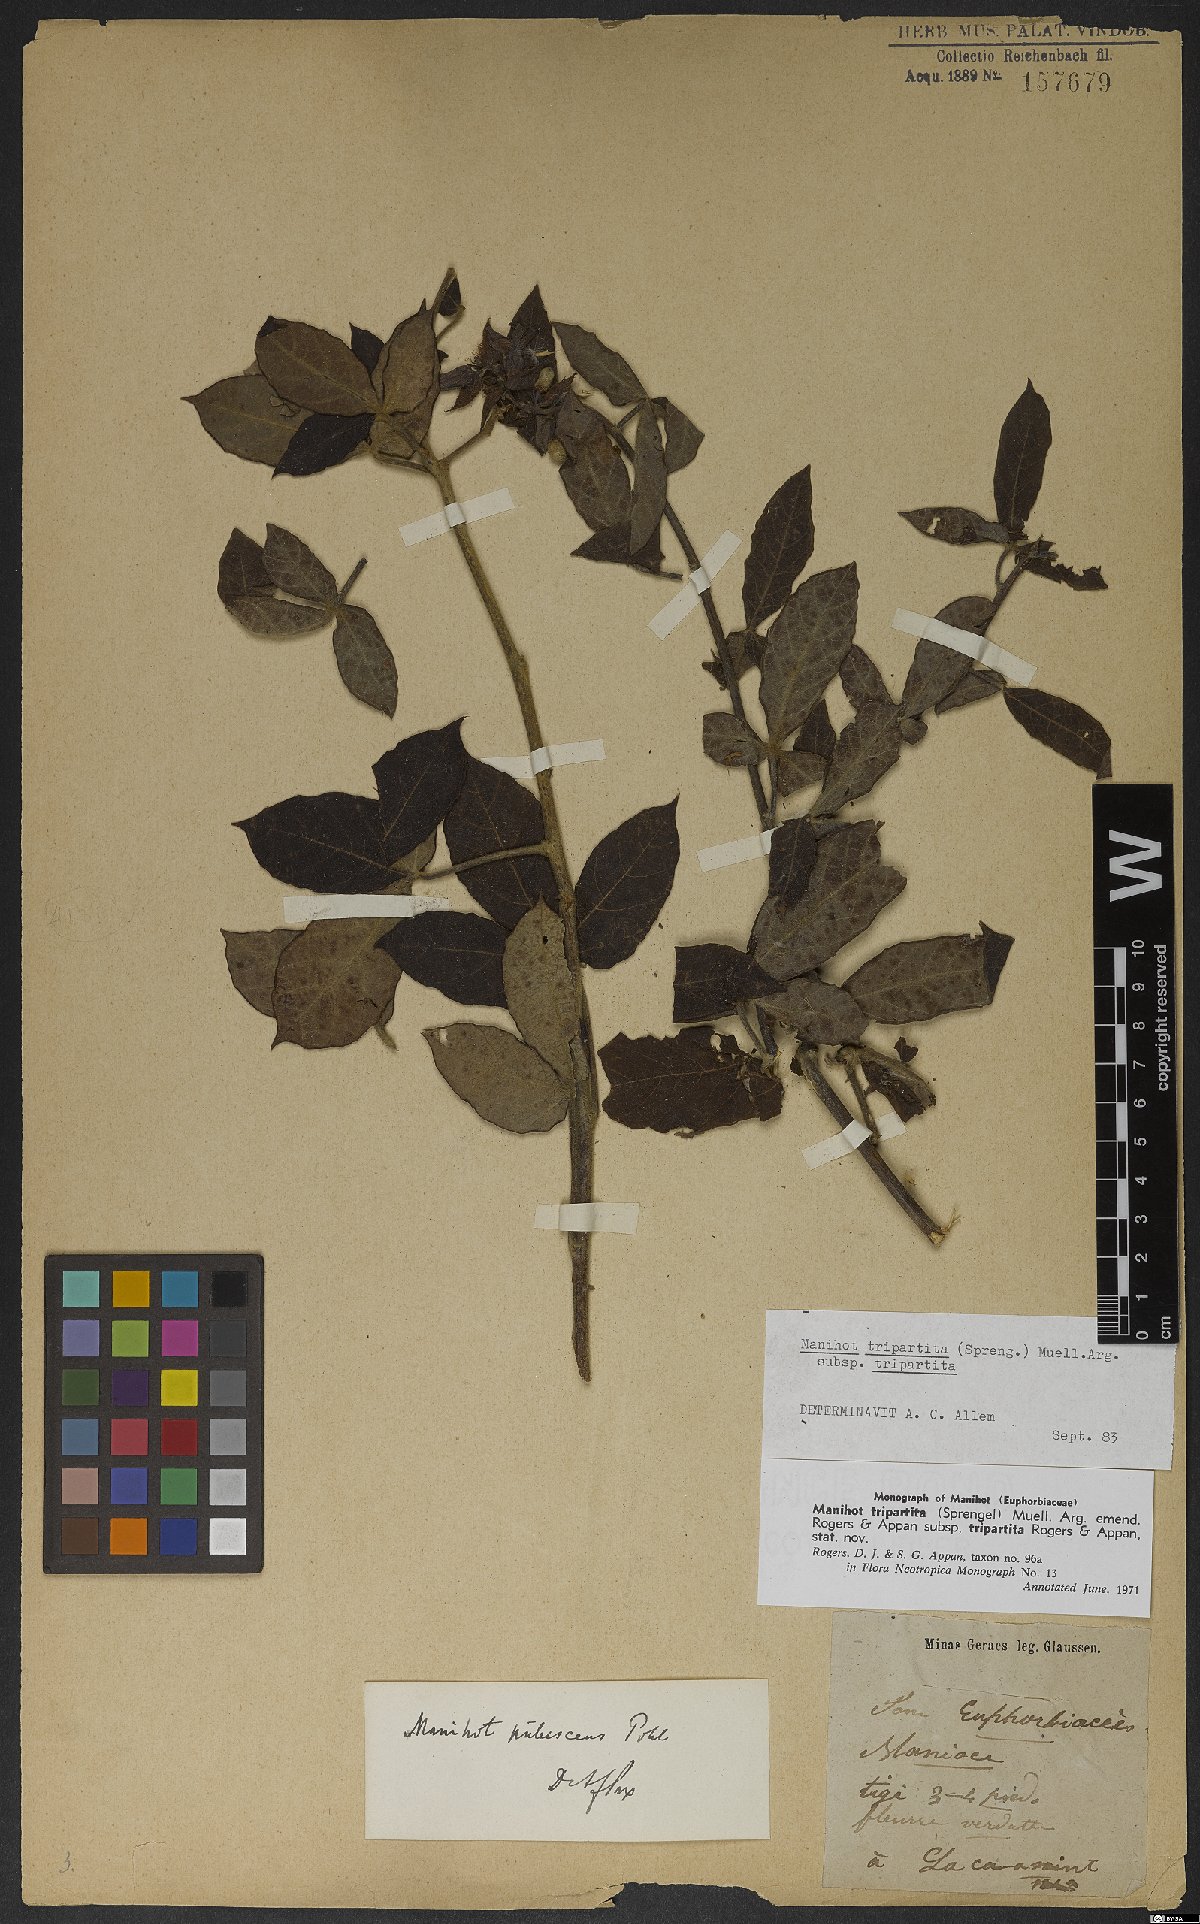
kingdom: Plantae
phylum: Tracheophyta
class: Magnoliopsida
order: Malpighiales
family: Euphorbiaceae
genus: Manihot
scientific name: Manihot tripartita
